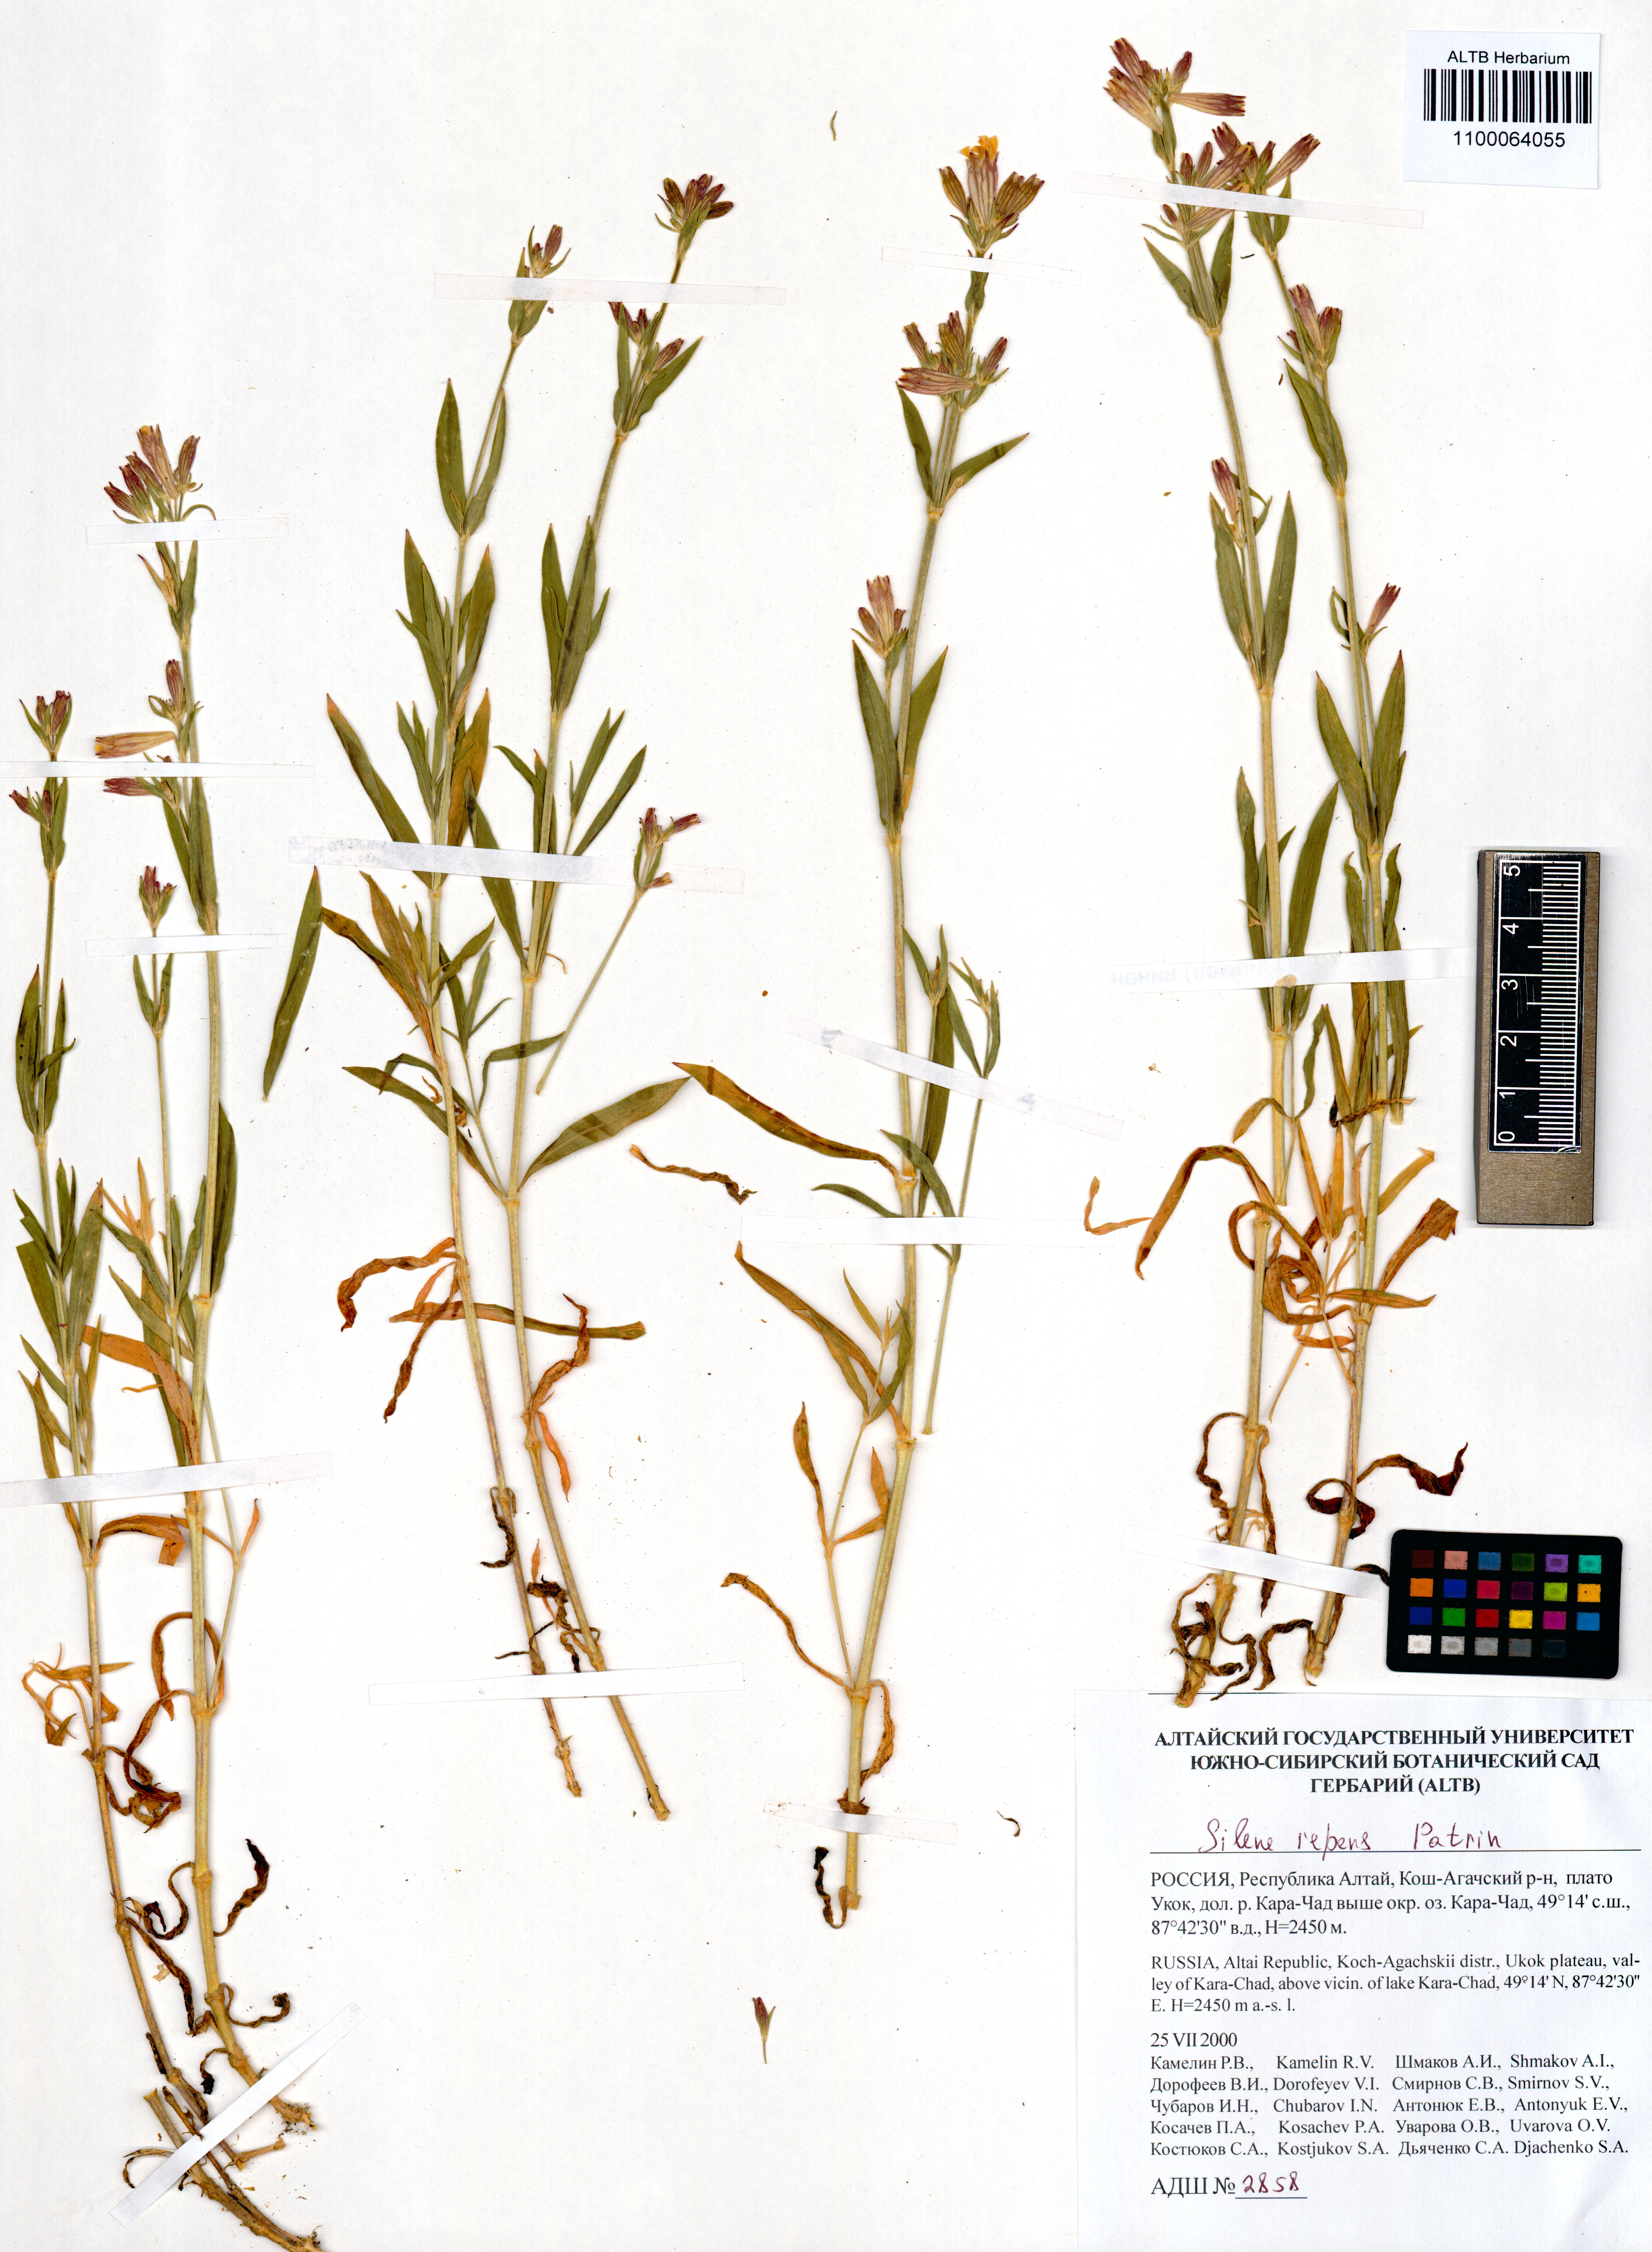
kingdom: Plantae
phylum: Tracheophyta
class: Magnoliopsida
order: Caryophyllales
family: Caryophyllaceae
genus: Silene
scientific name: Silene repens
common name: Pink campion
